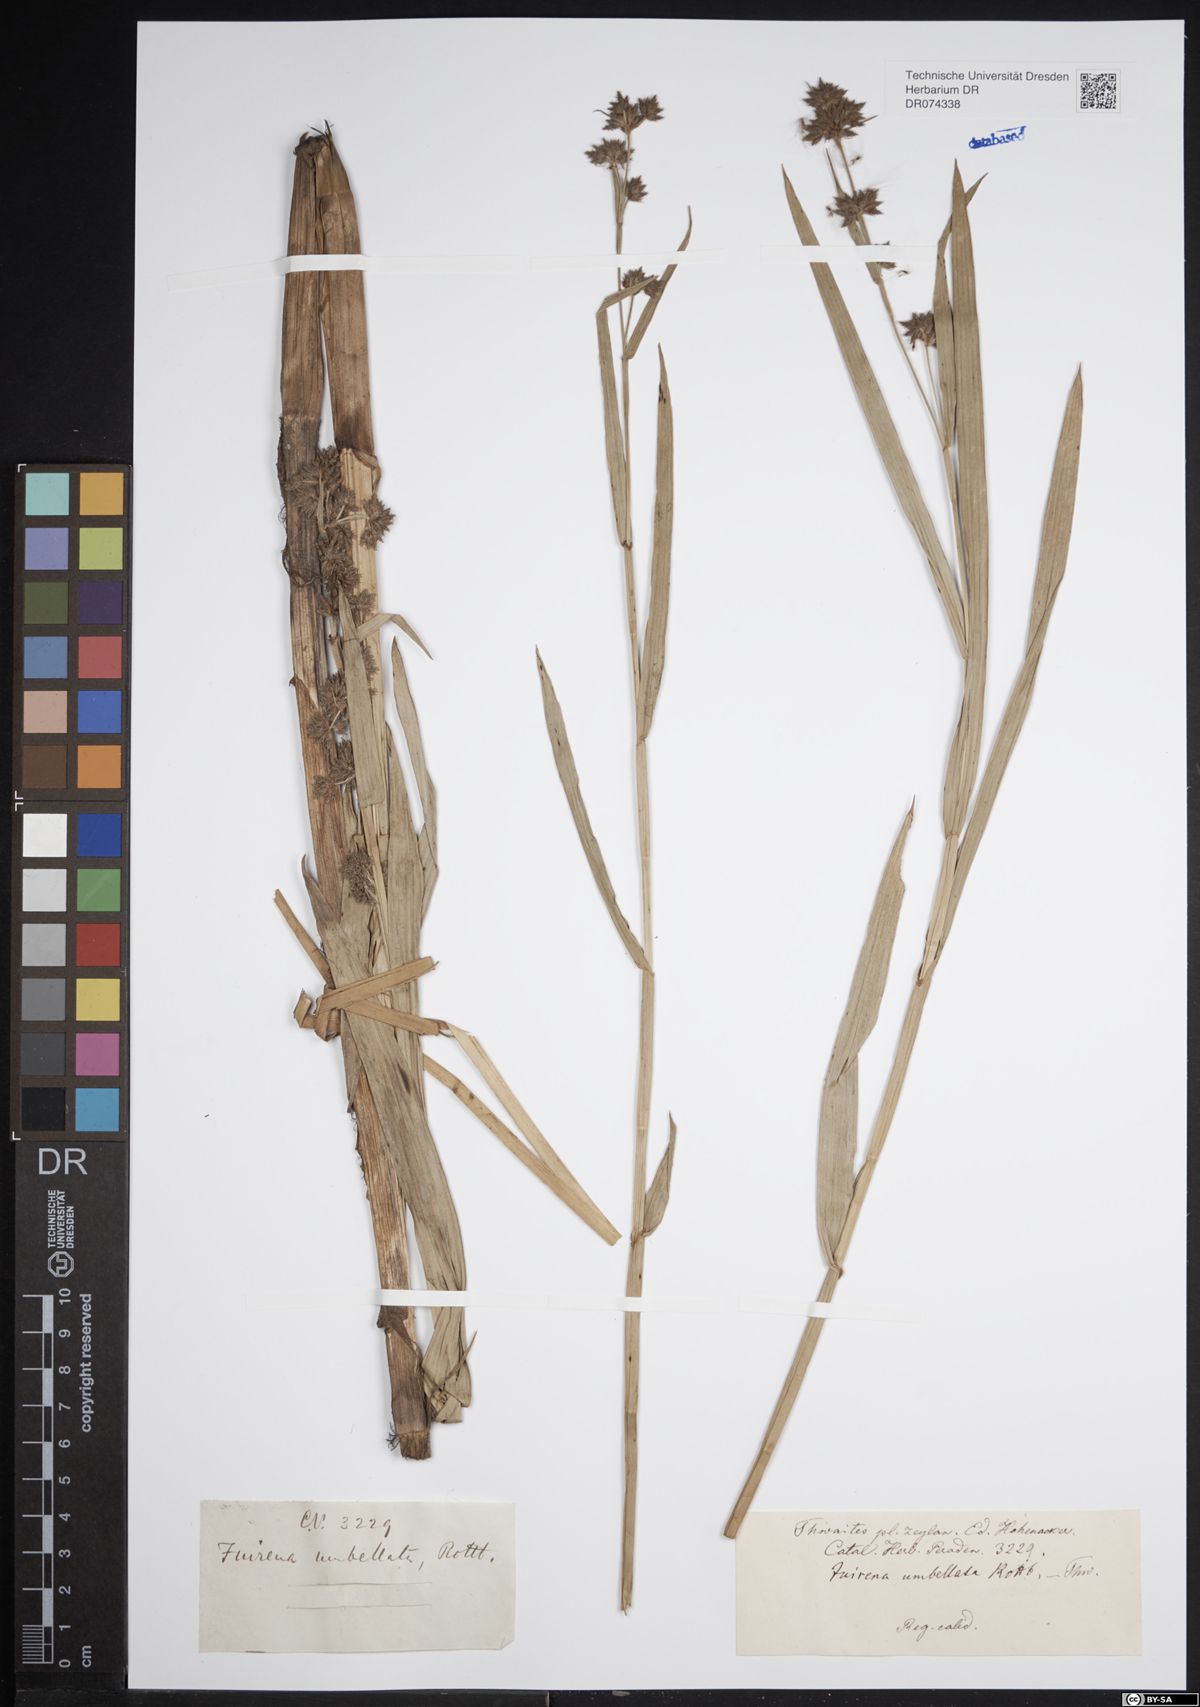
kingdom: Plantae
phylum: Tracheophyta
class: Liliopsida
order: Poales
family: Cyperaceae
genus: Fuirena
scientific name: Fuirena umbellata
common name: Yefen
